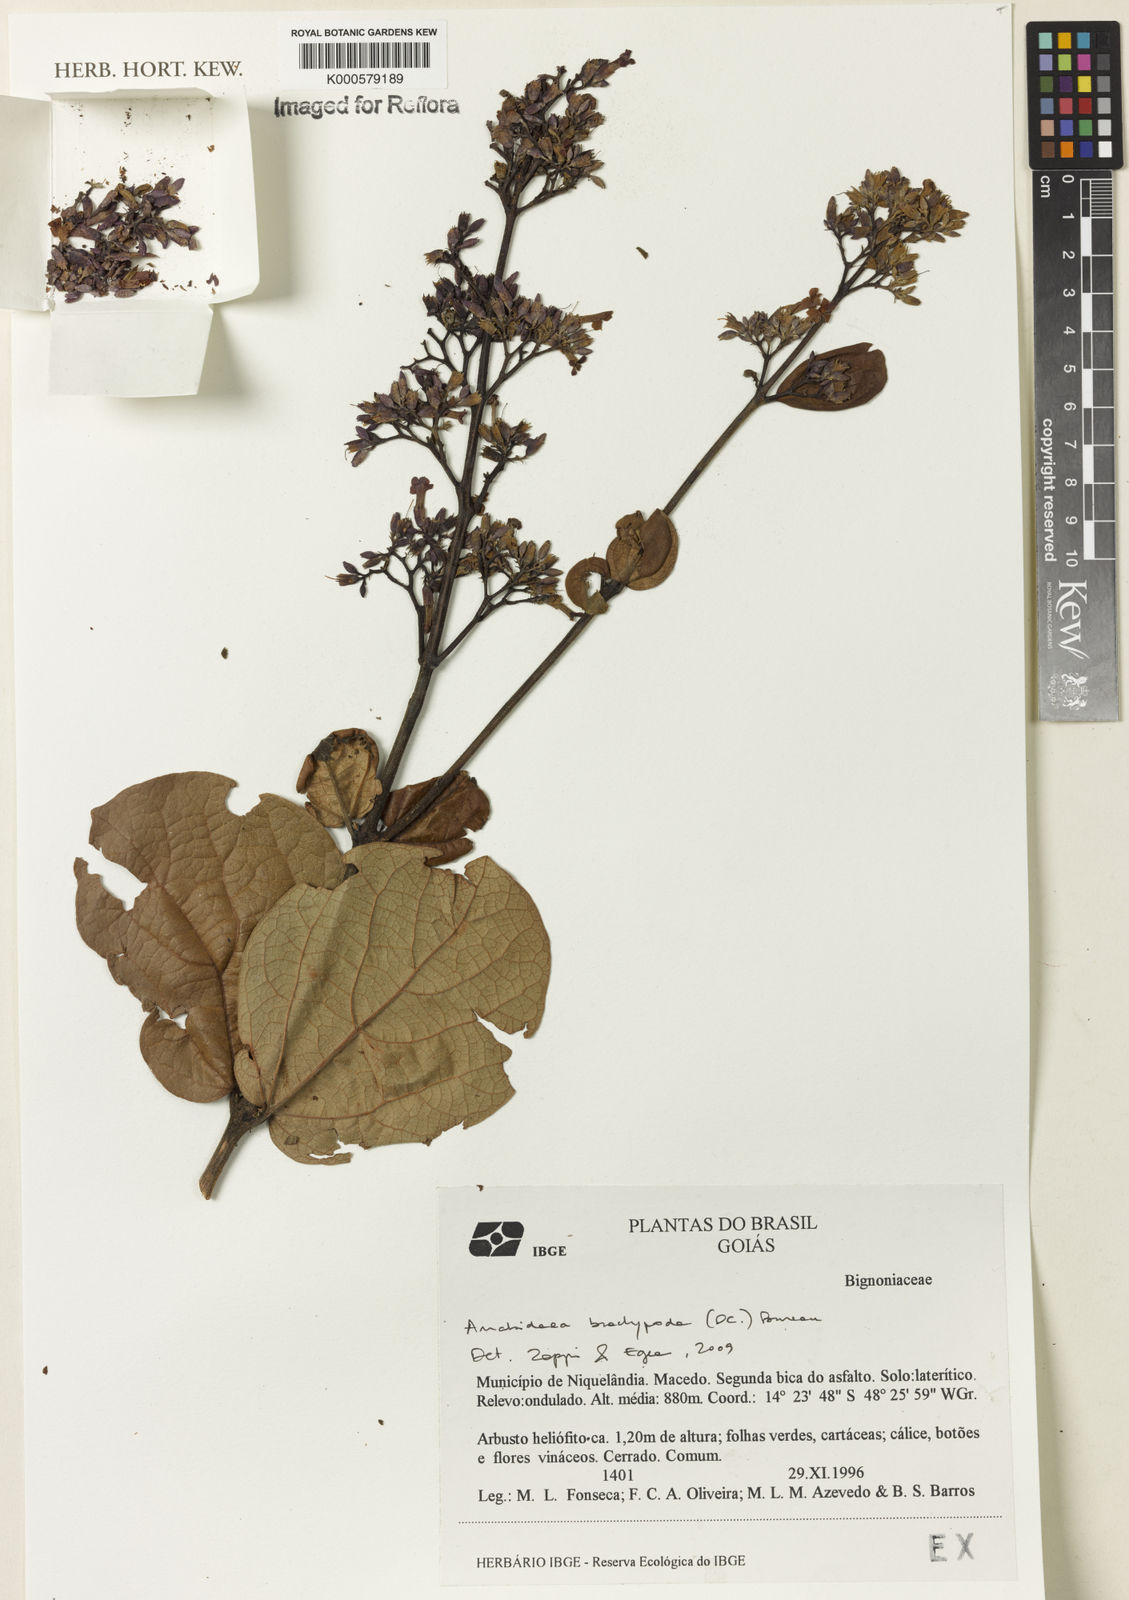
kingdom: Plantae
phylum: Tracheophyta
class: Magnoliopsida
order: Lamiales
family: Bignoniaceae
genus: Fridericia
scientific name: Fridericia platyphylla
